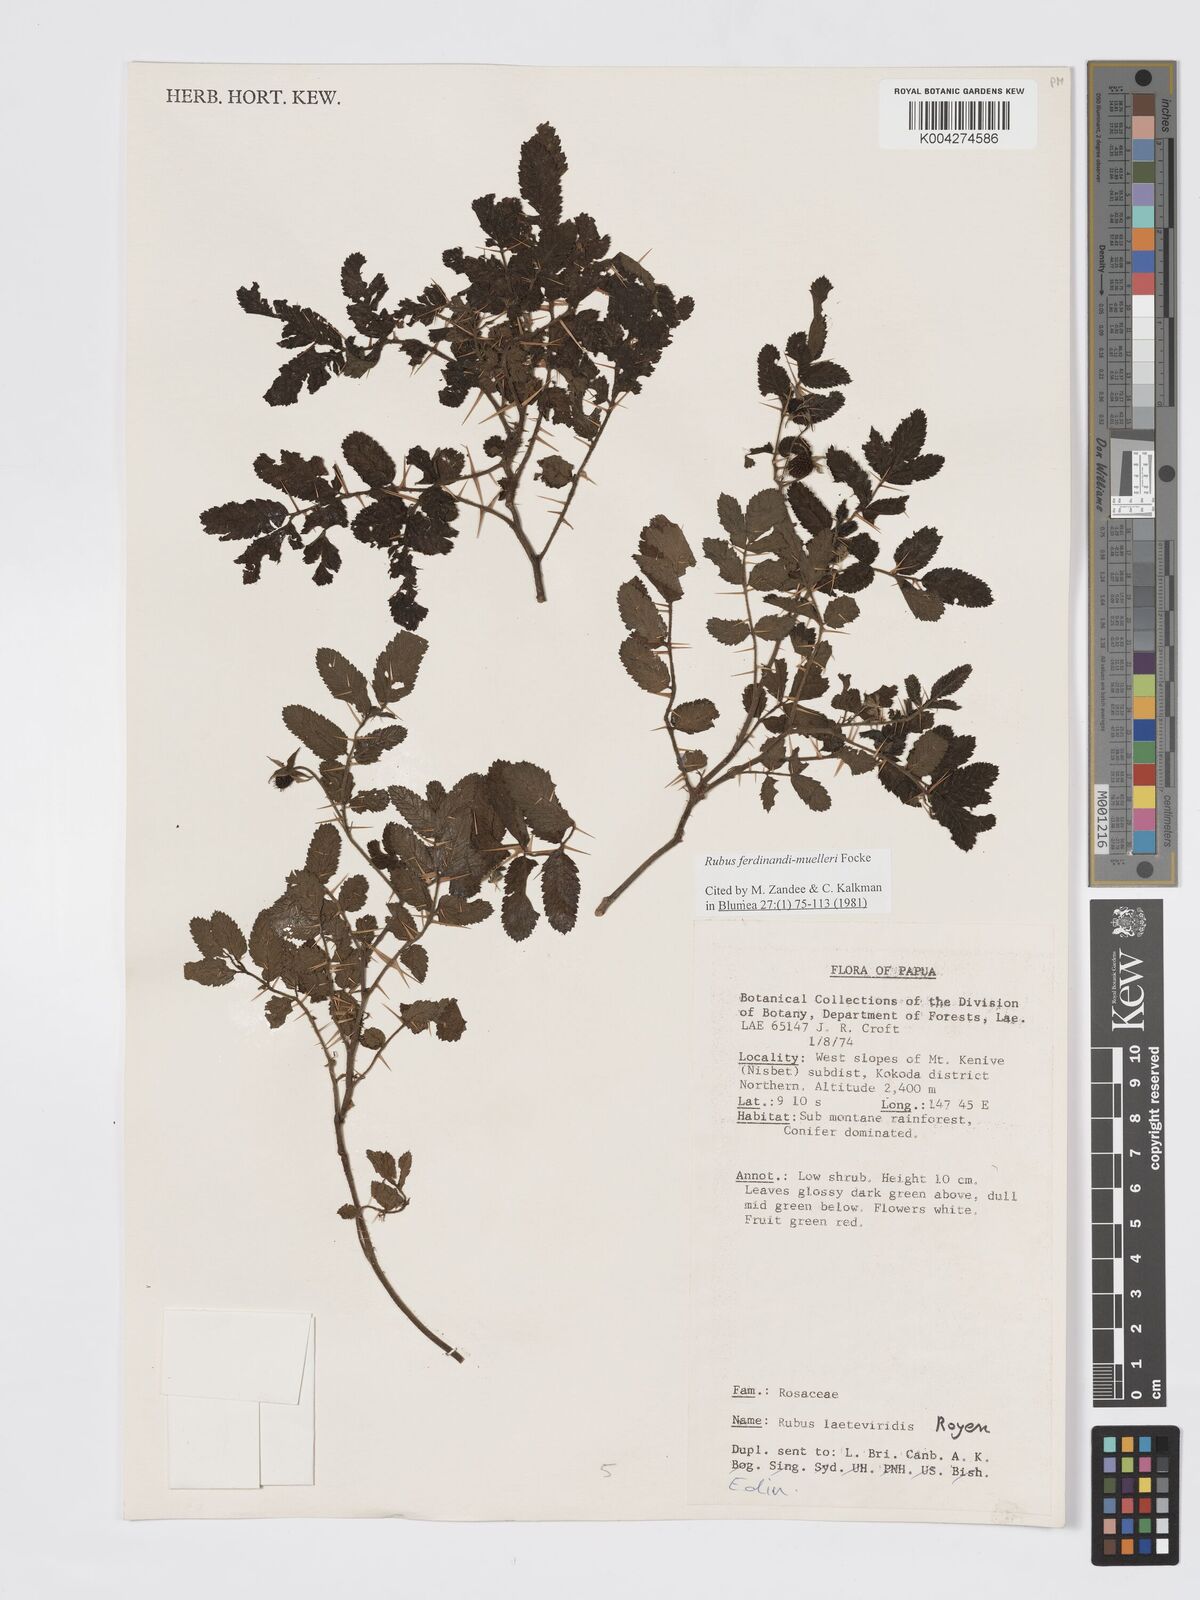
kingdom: Plantae
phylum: Tracheophyta
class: Magnoliopsida
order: Rosales
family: Rosaceae
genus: Rubus
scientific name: Rubus ferdinandimuelleri
